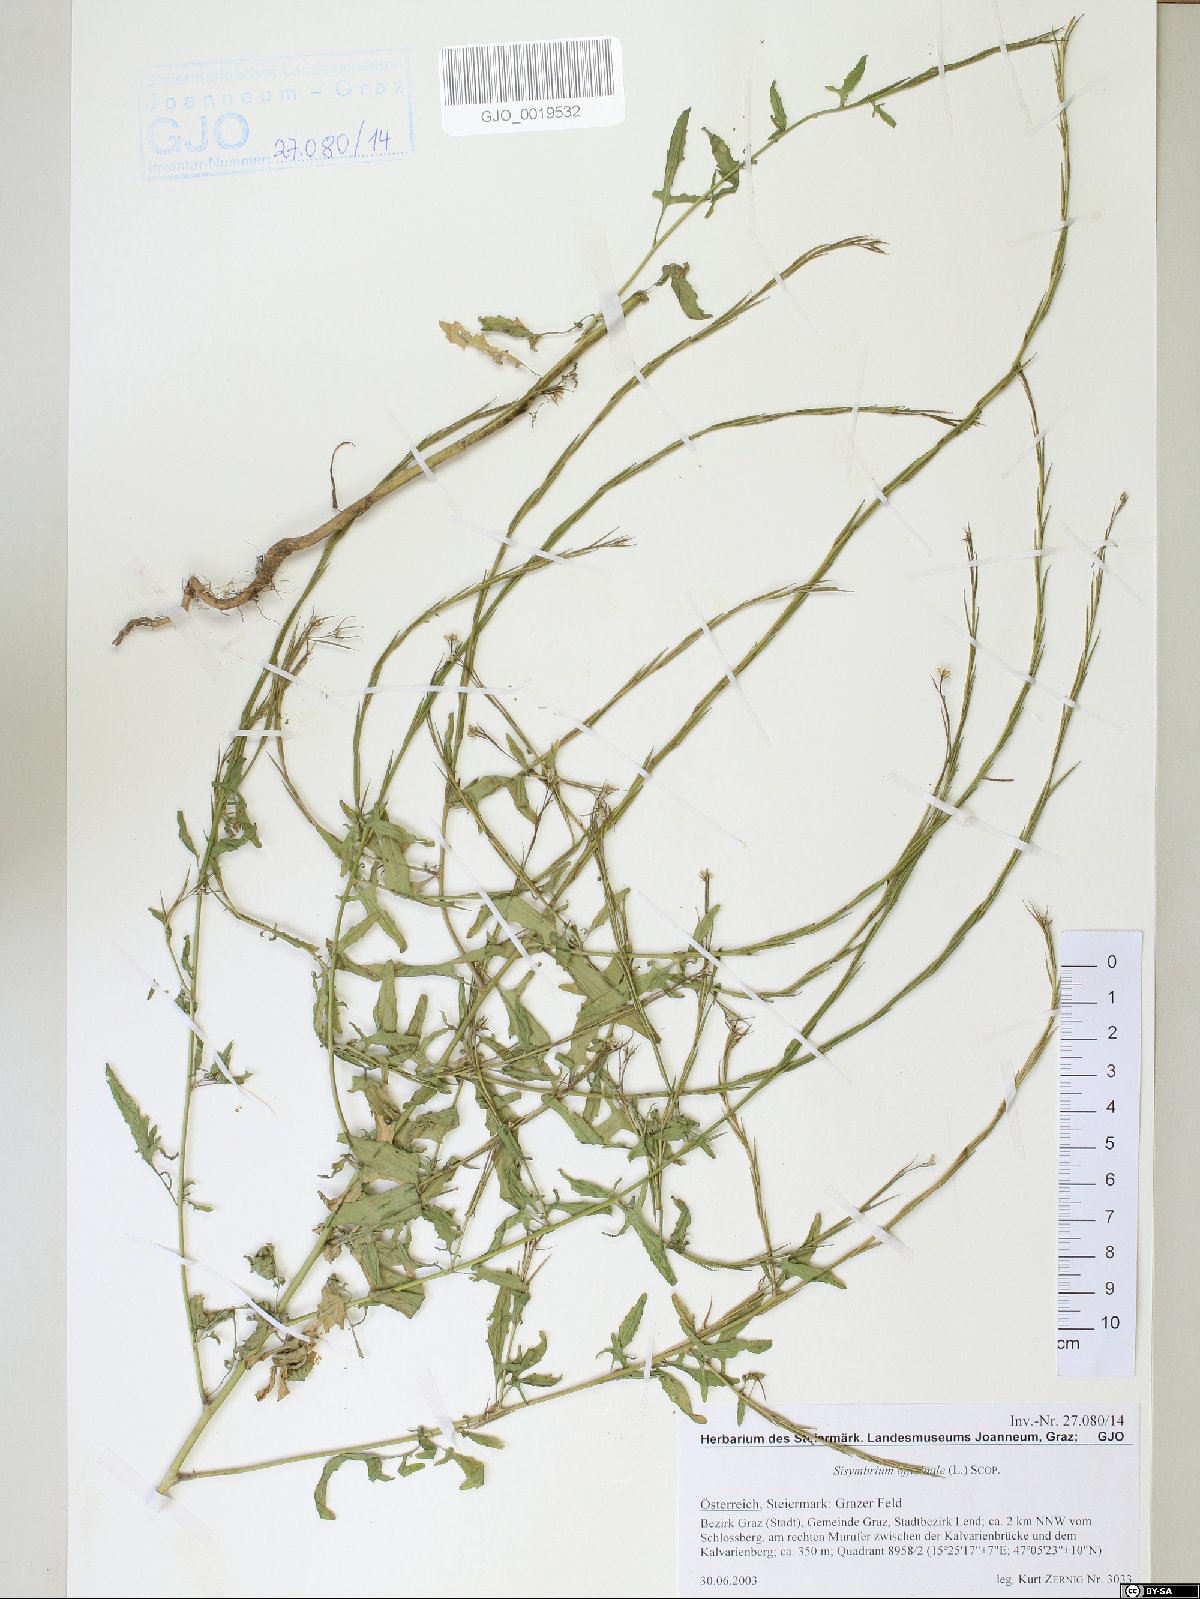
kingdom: Plantae
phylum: Tracheophyta
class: Magnoliopsida
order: Brassicales
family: Brassicaceae
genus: Sisymbrium
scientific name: Sisymbrium officinale
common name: Hedge mustard
